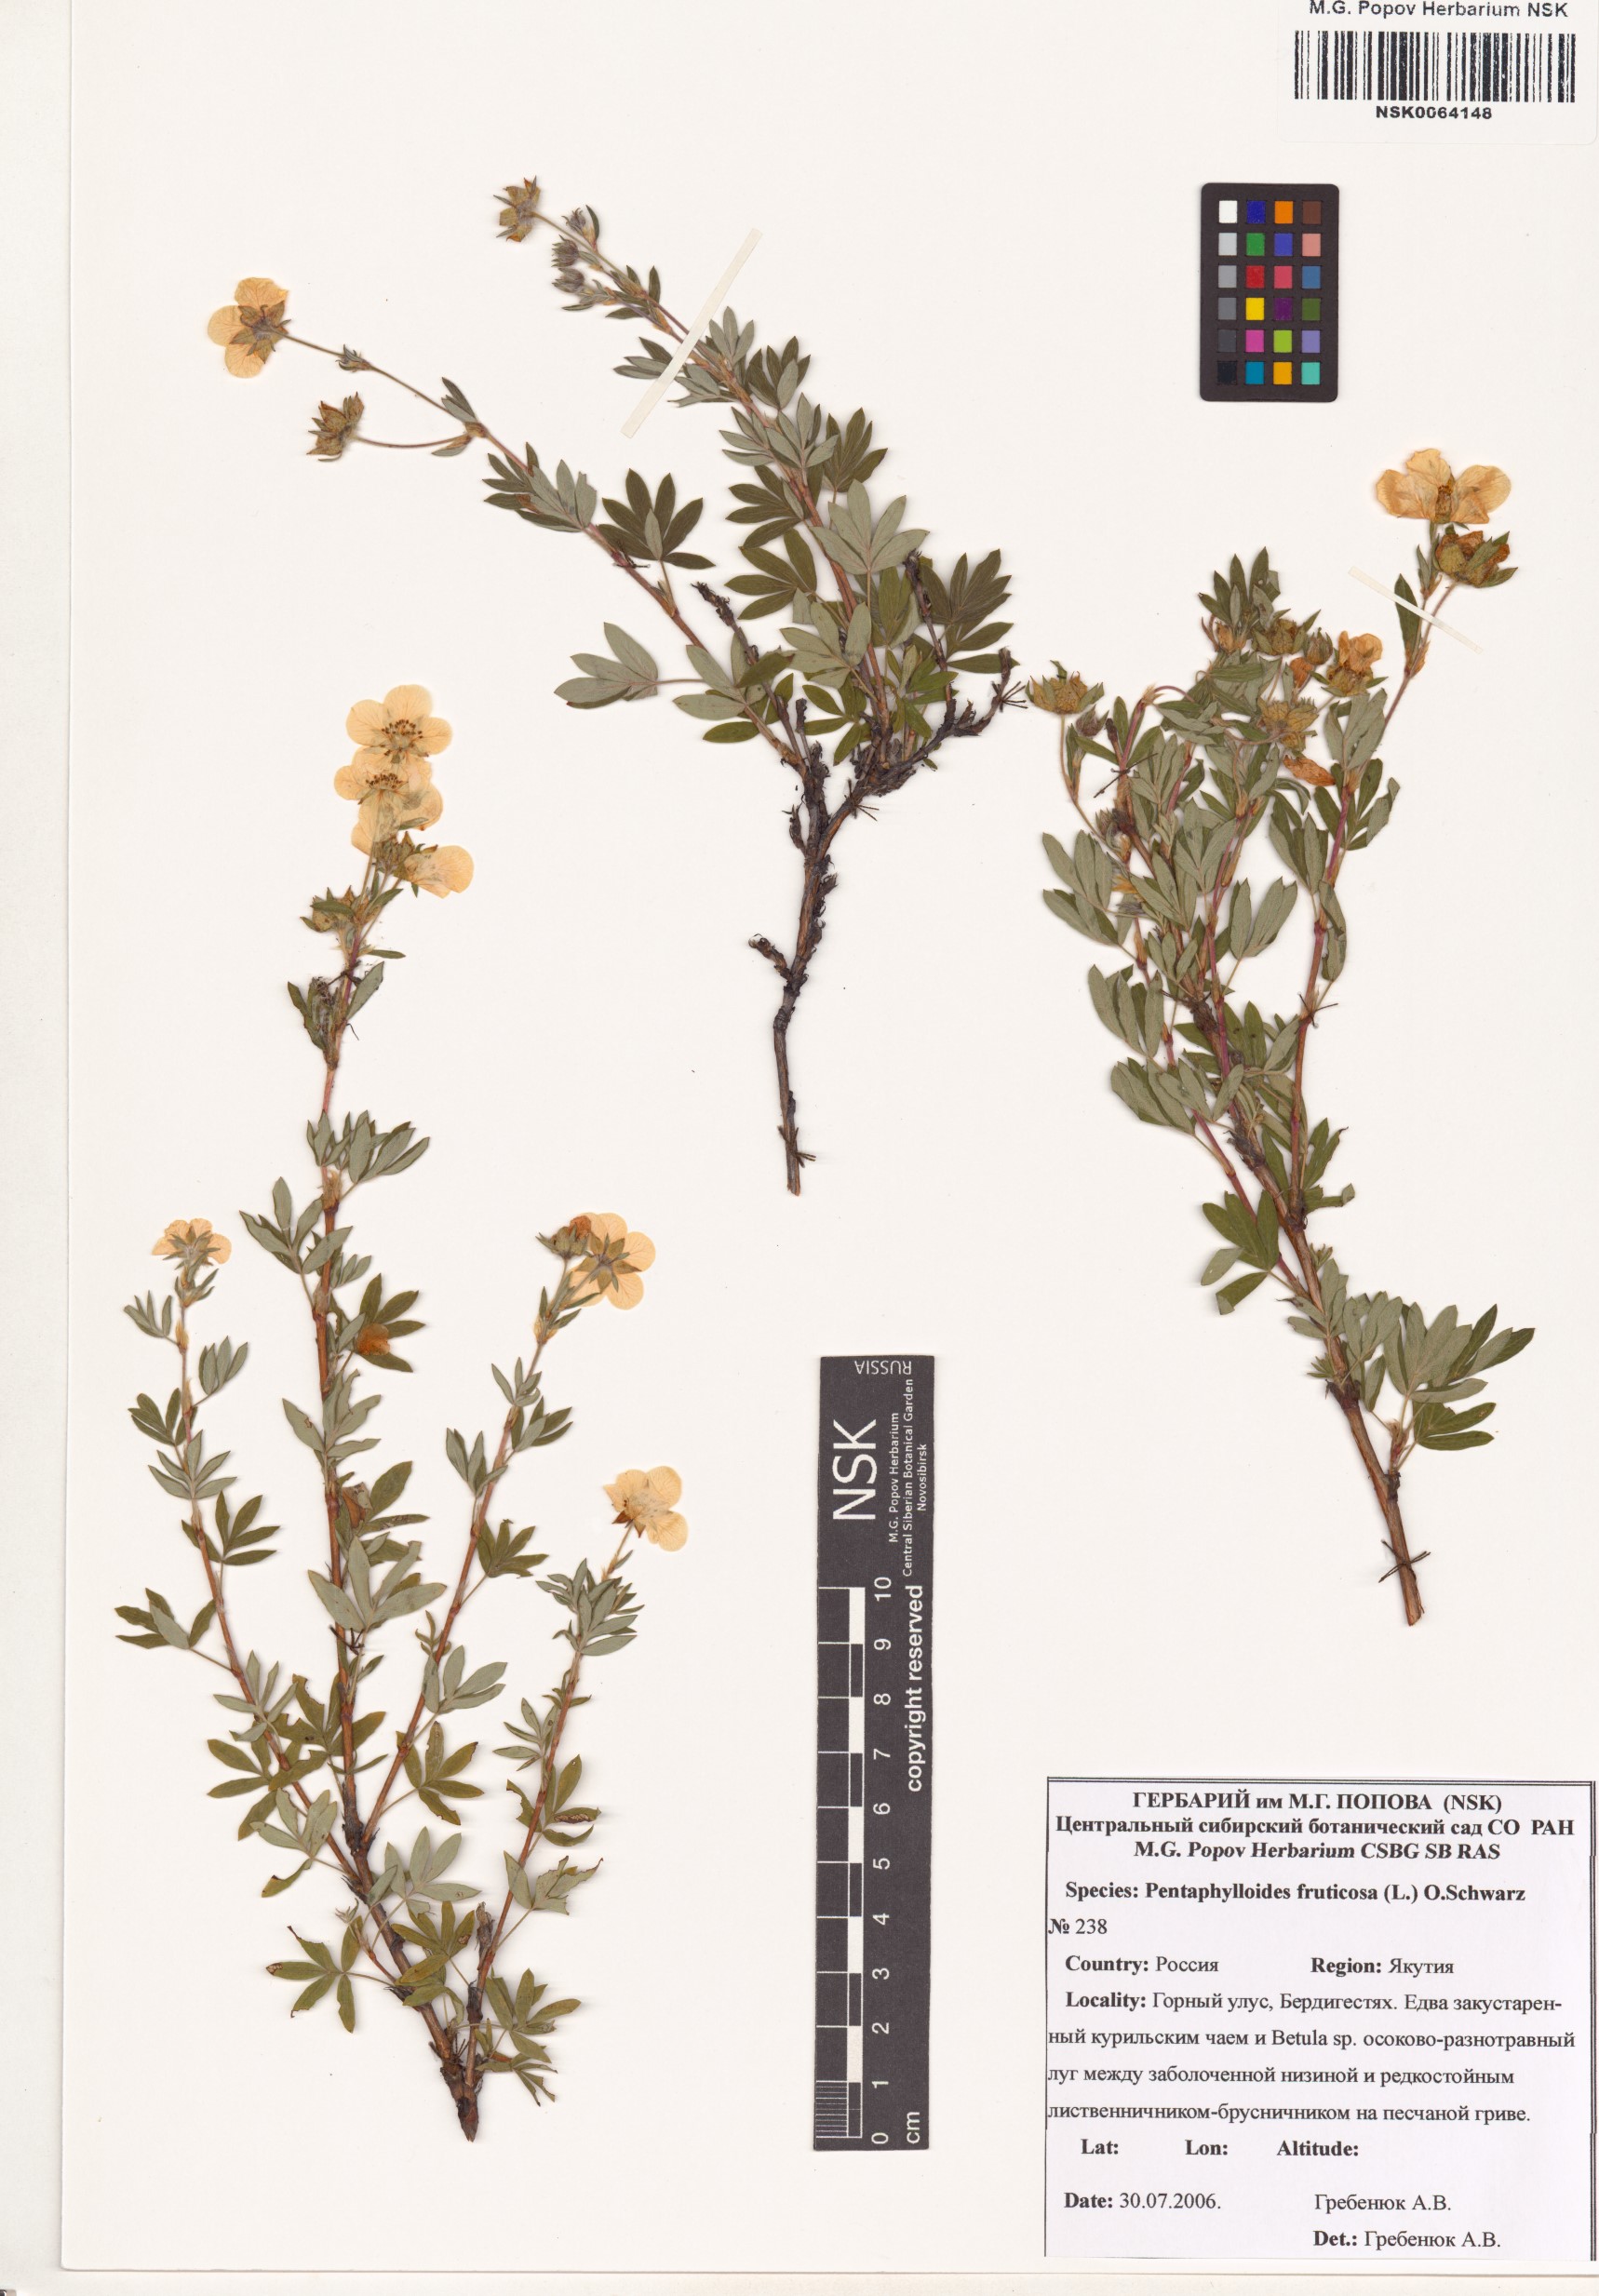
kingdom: Plantae
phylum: Tracheophyta
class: Magnoliopsida
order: Rosales
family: Rosaceae
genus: Dasiphora
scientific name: Dasiphora fruticosa
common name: Shrubby cinquefoil
